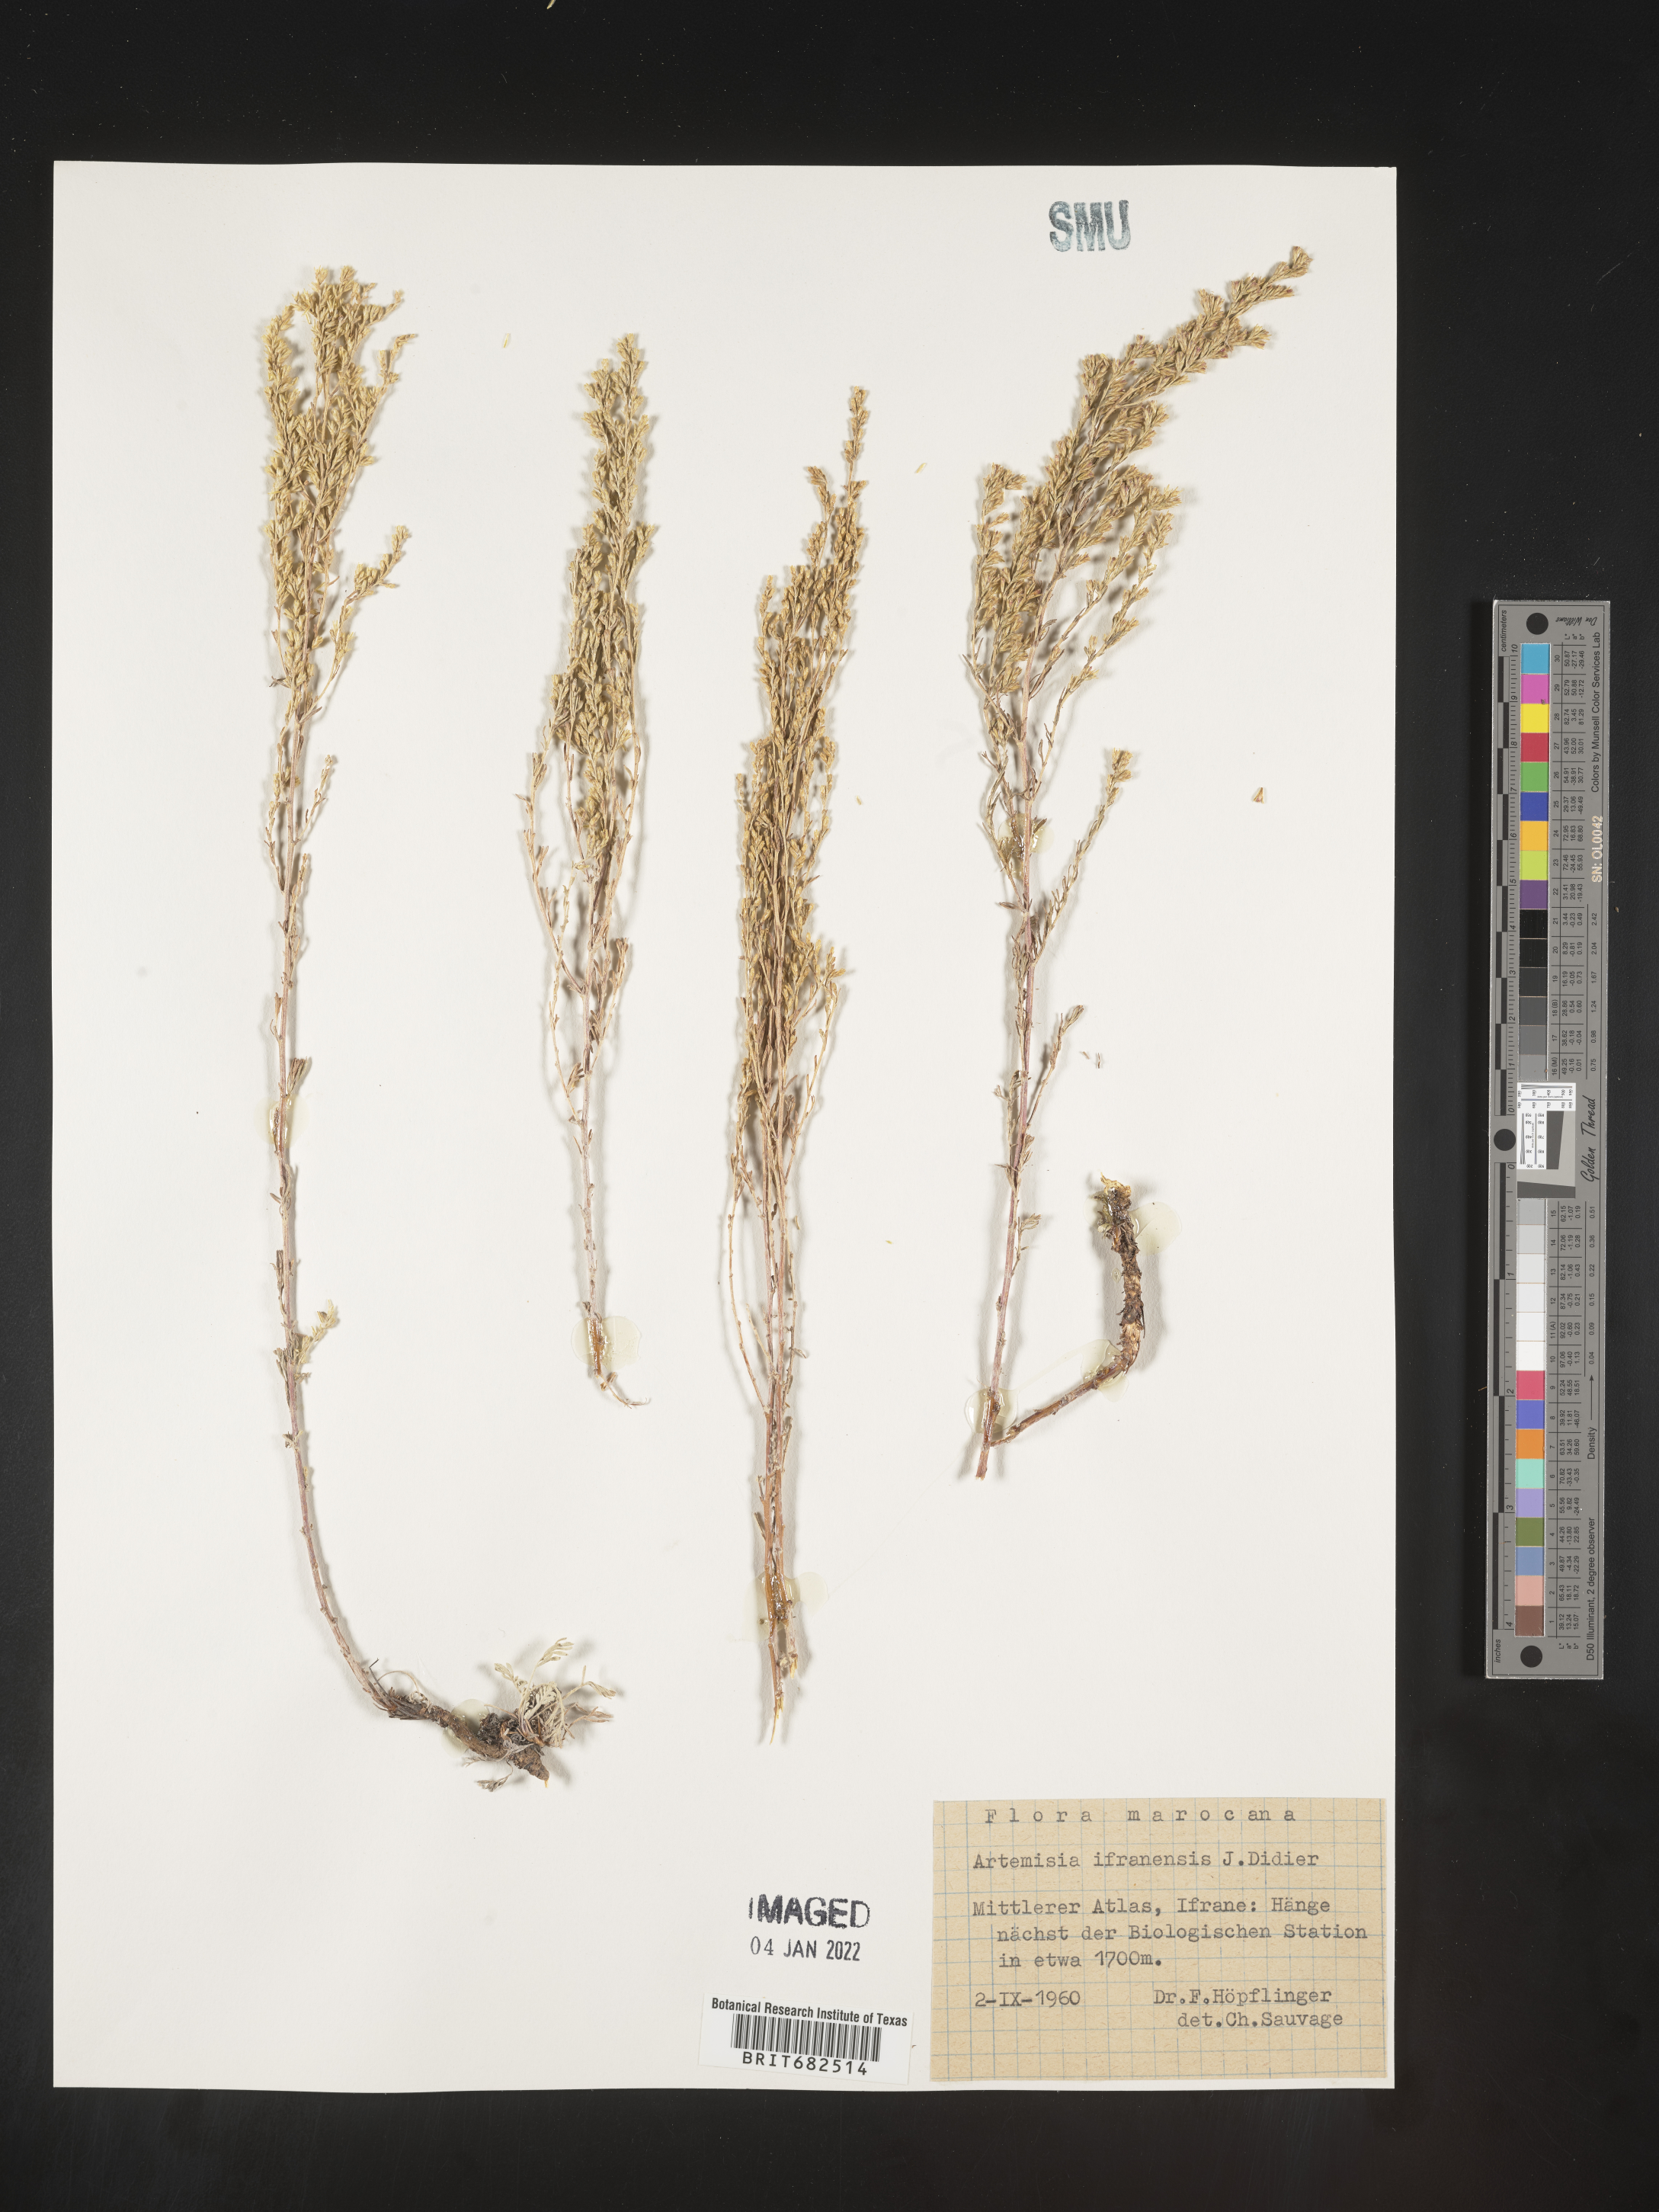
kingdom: Plantae
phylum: Tracheophyta
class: Magnoliopsida
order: Asterales
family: Asteraceae
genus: Artemisia
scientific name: Artemisia
